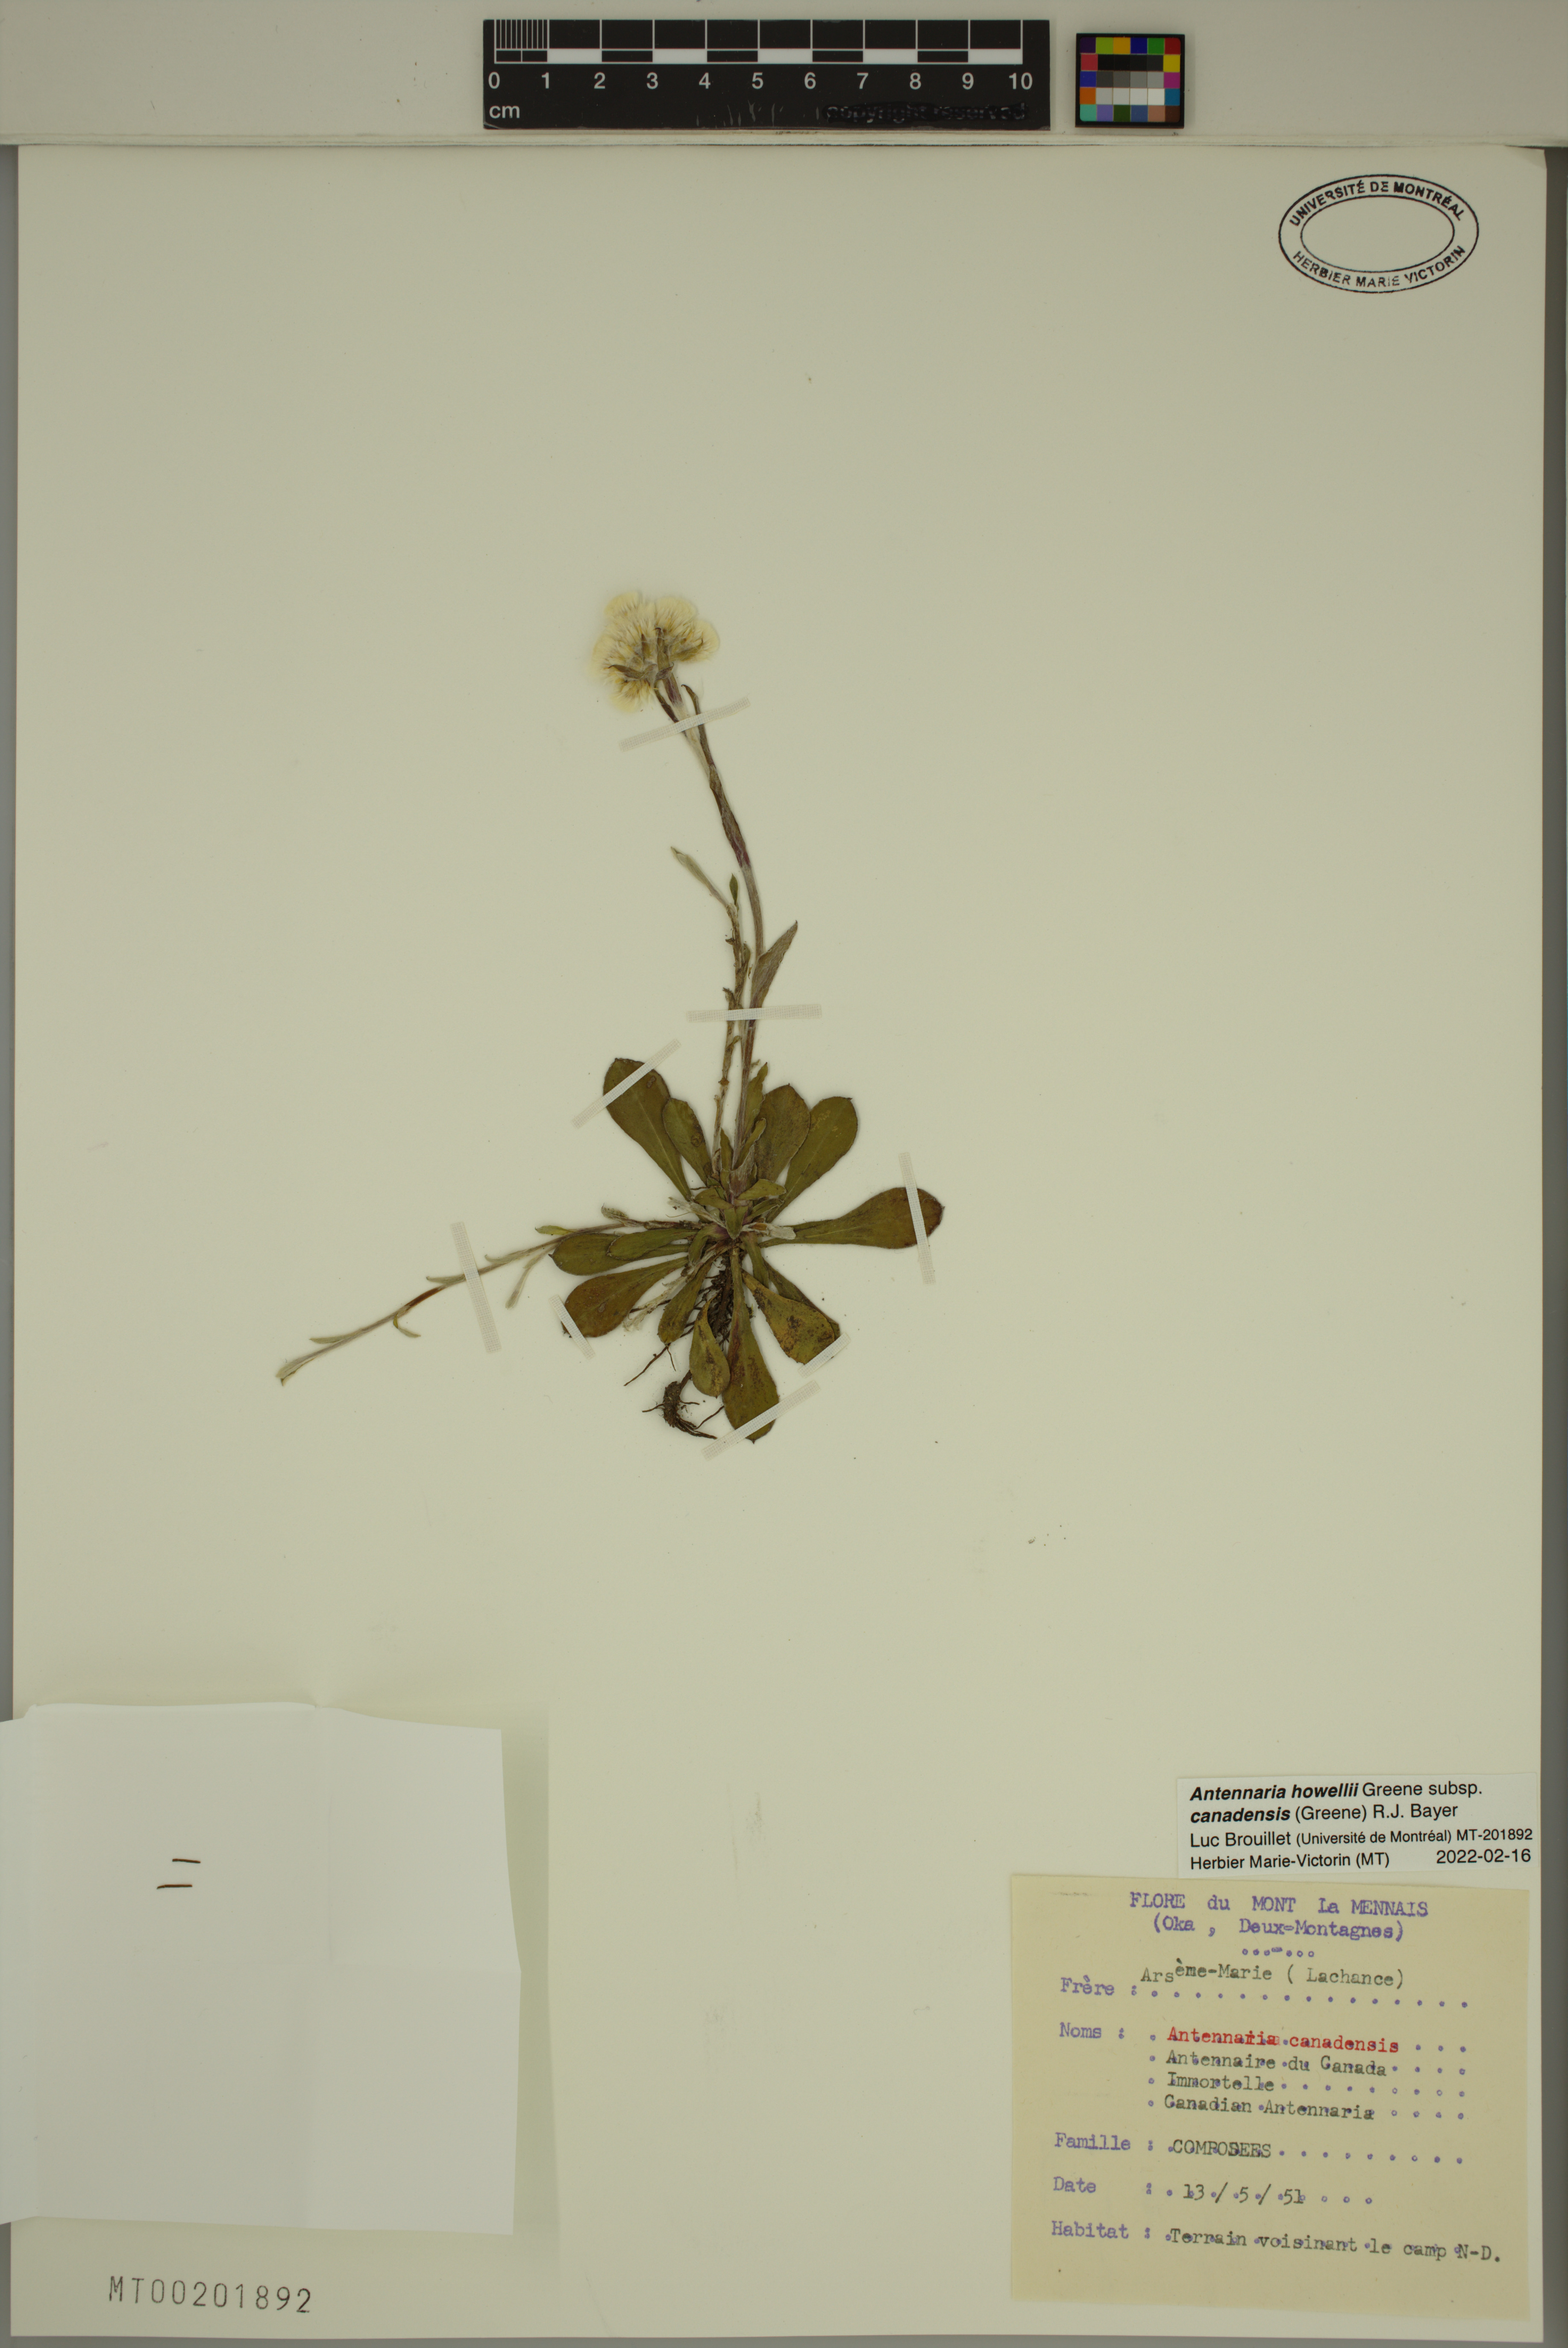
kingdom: Plantae
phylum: Tracheophyta
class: Magnoliopsida
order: Asterales
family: Asteraceae
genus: Antennaria
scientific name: Antennaria howellii
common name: Howell's pussytoes
